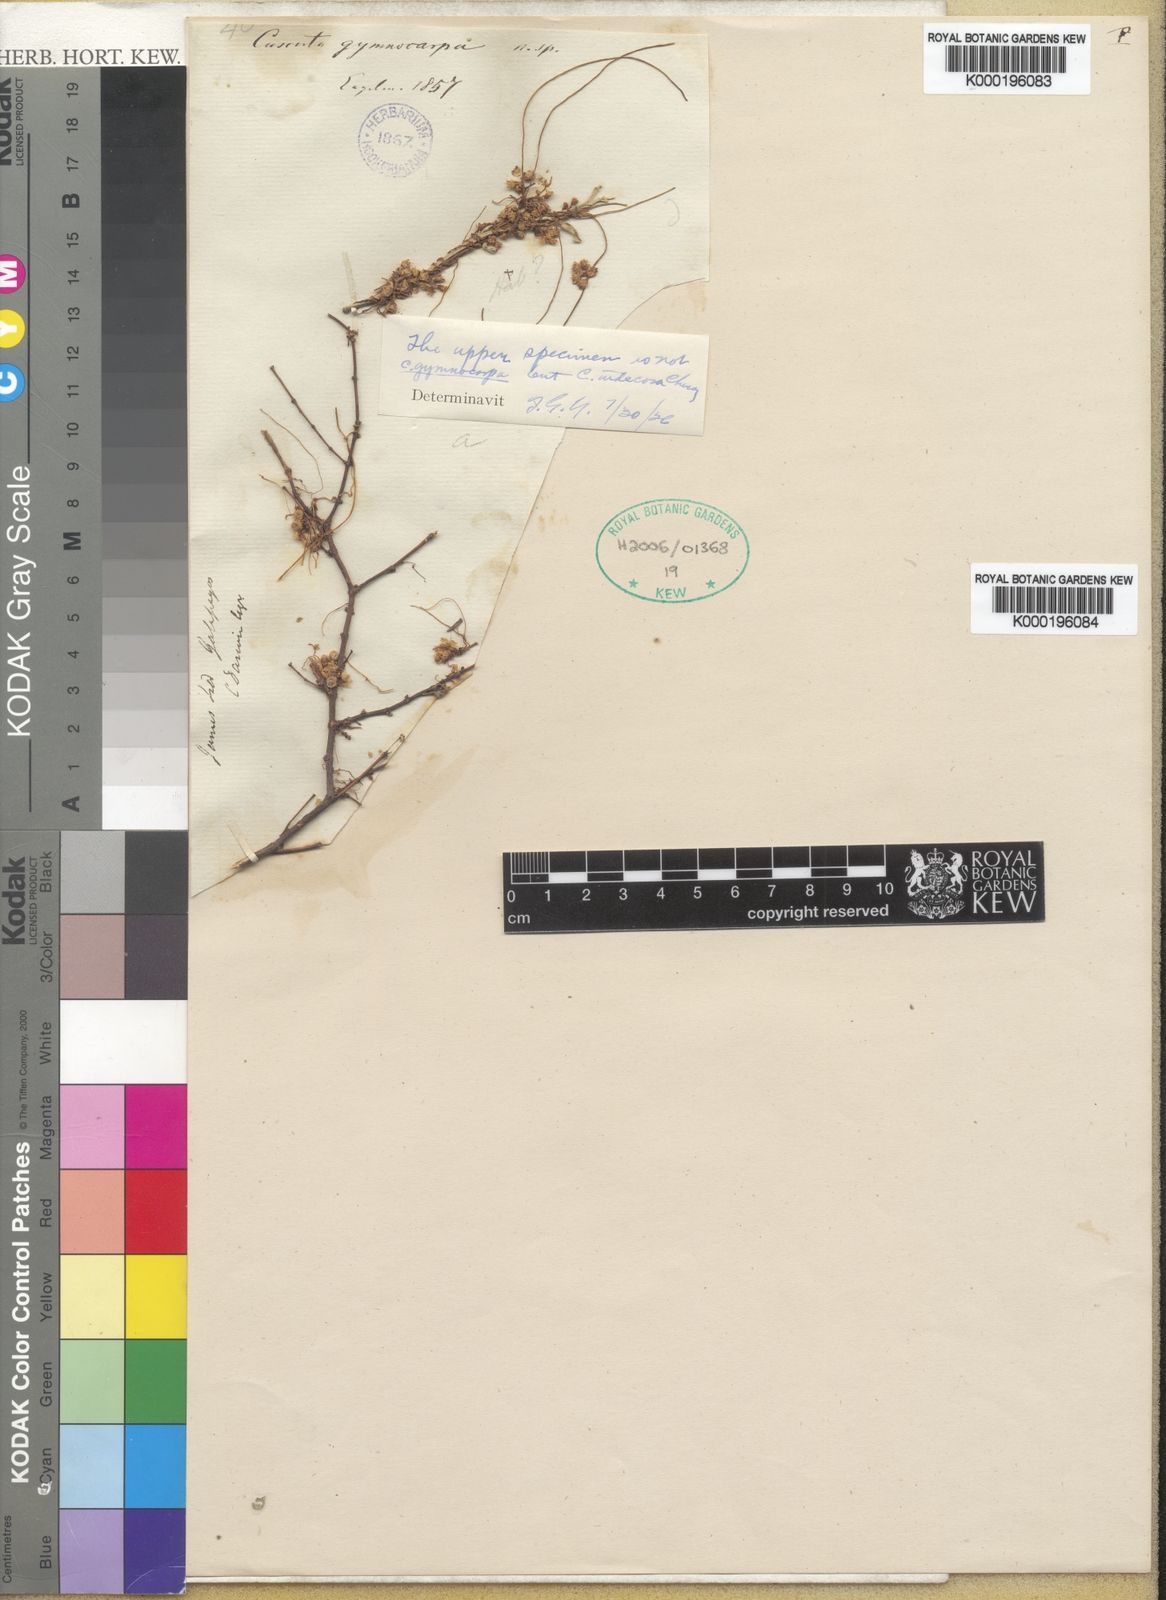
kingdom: Plantae
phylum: Tracheophyta
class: Magnoliopsida
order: Solanales
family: Convolvulaceae
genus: Cuscuta
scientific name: Cuscuta gymnocarpa
